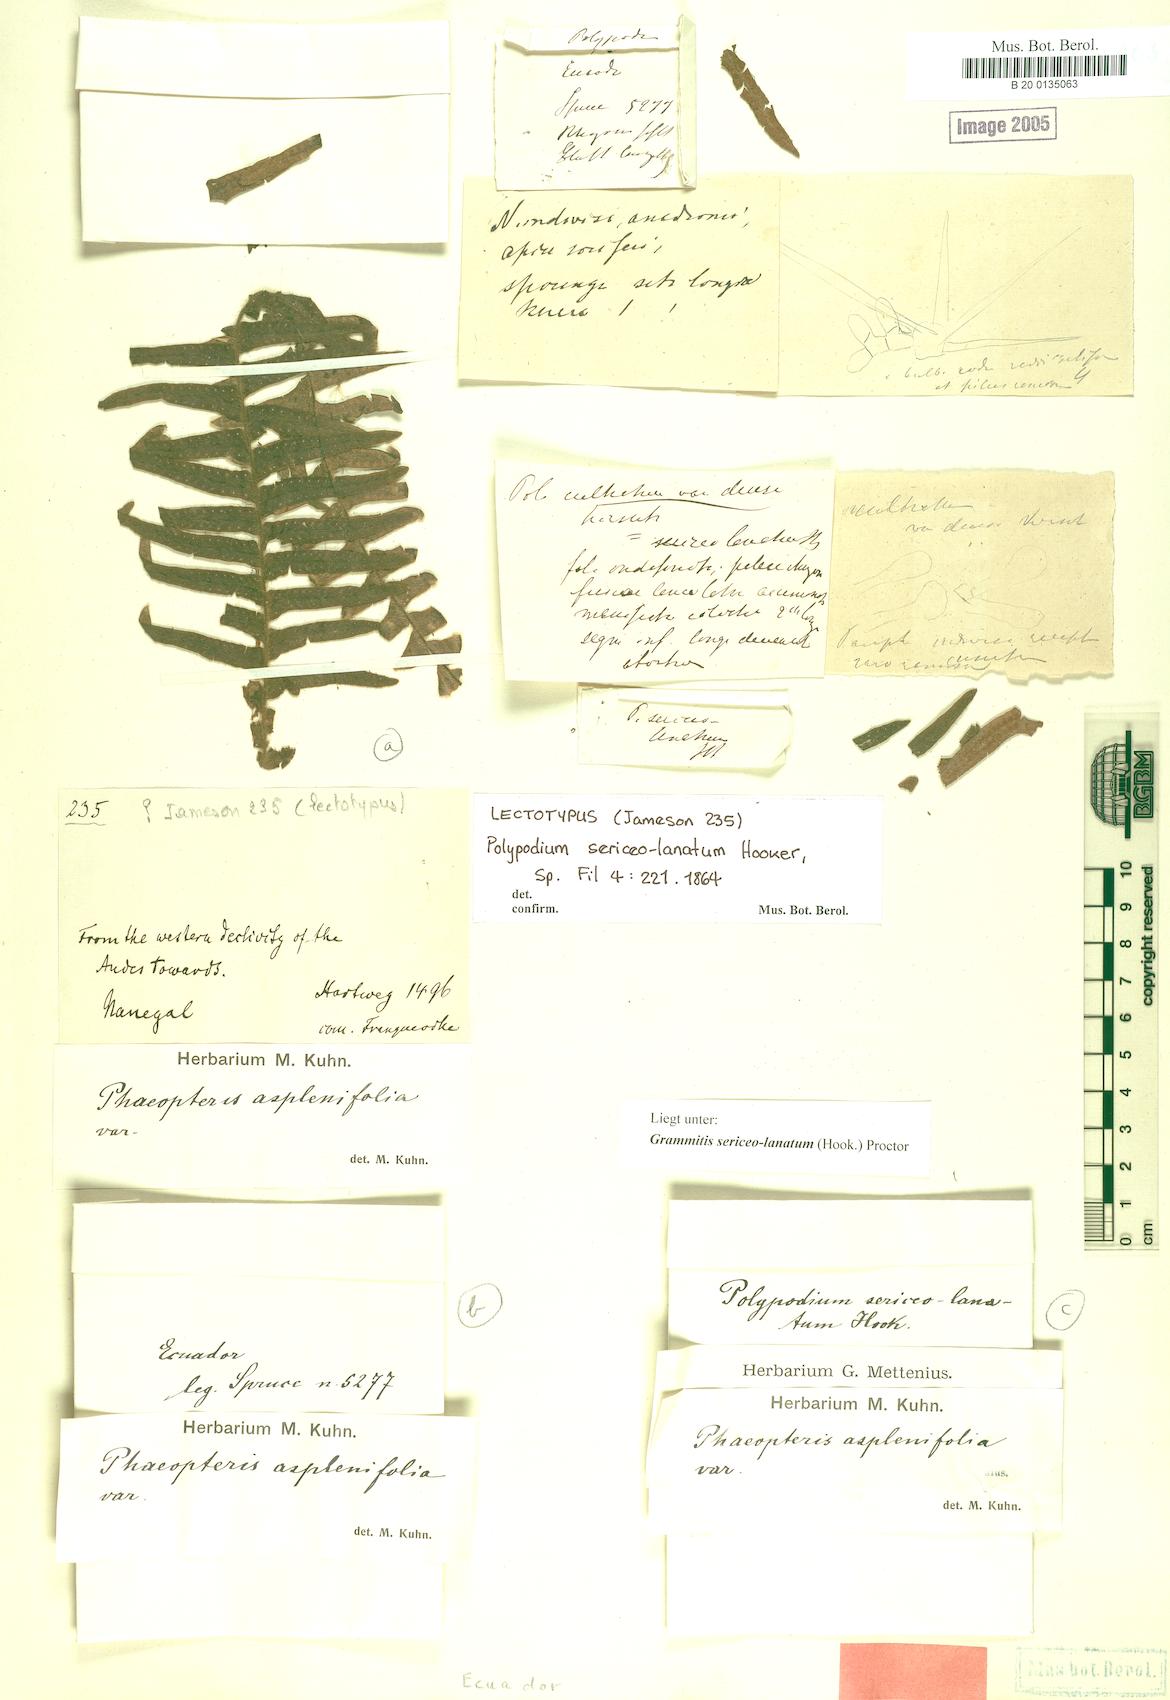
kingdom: Plantae
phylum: Tracheophyta
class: Polypodiopsida
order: Polypodiales
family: Polypodiaceae
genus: Alansmia
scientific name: Alansmia lanigera
